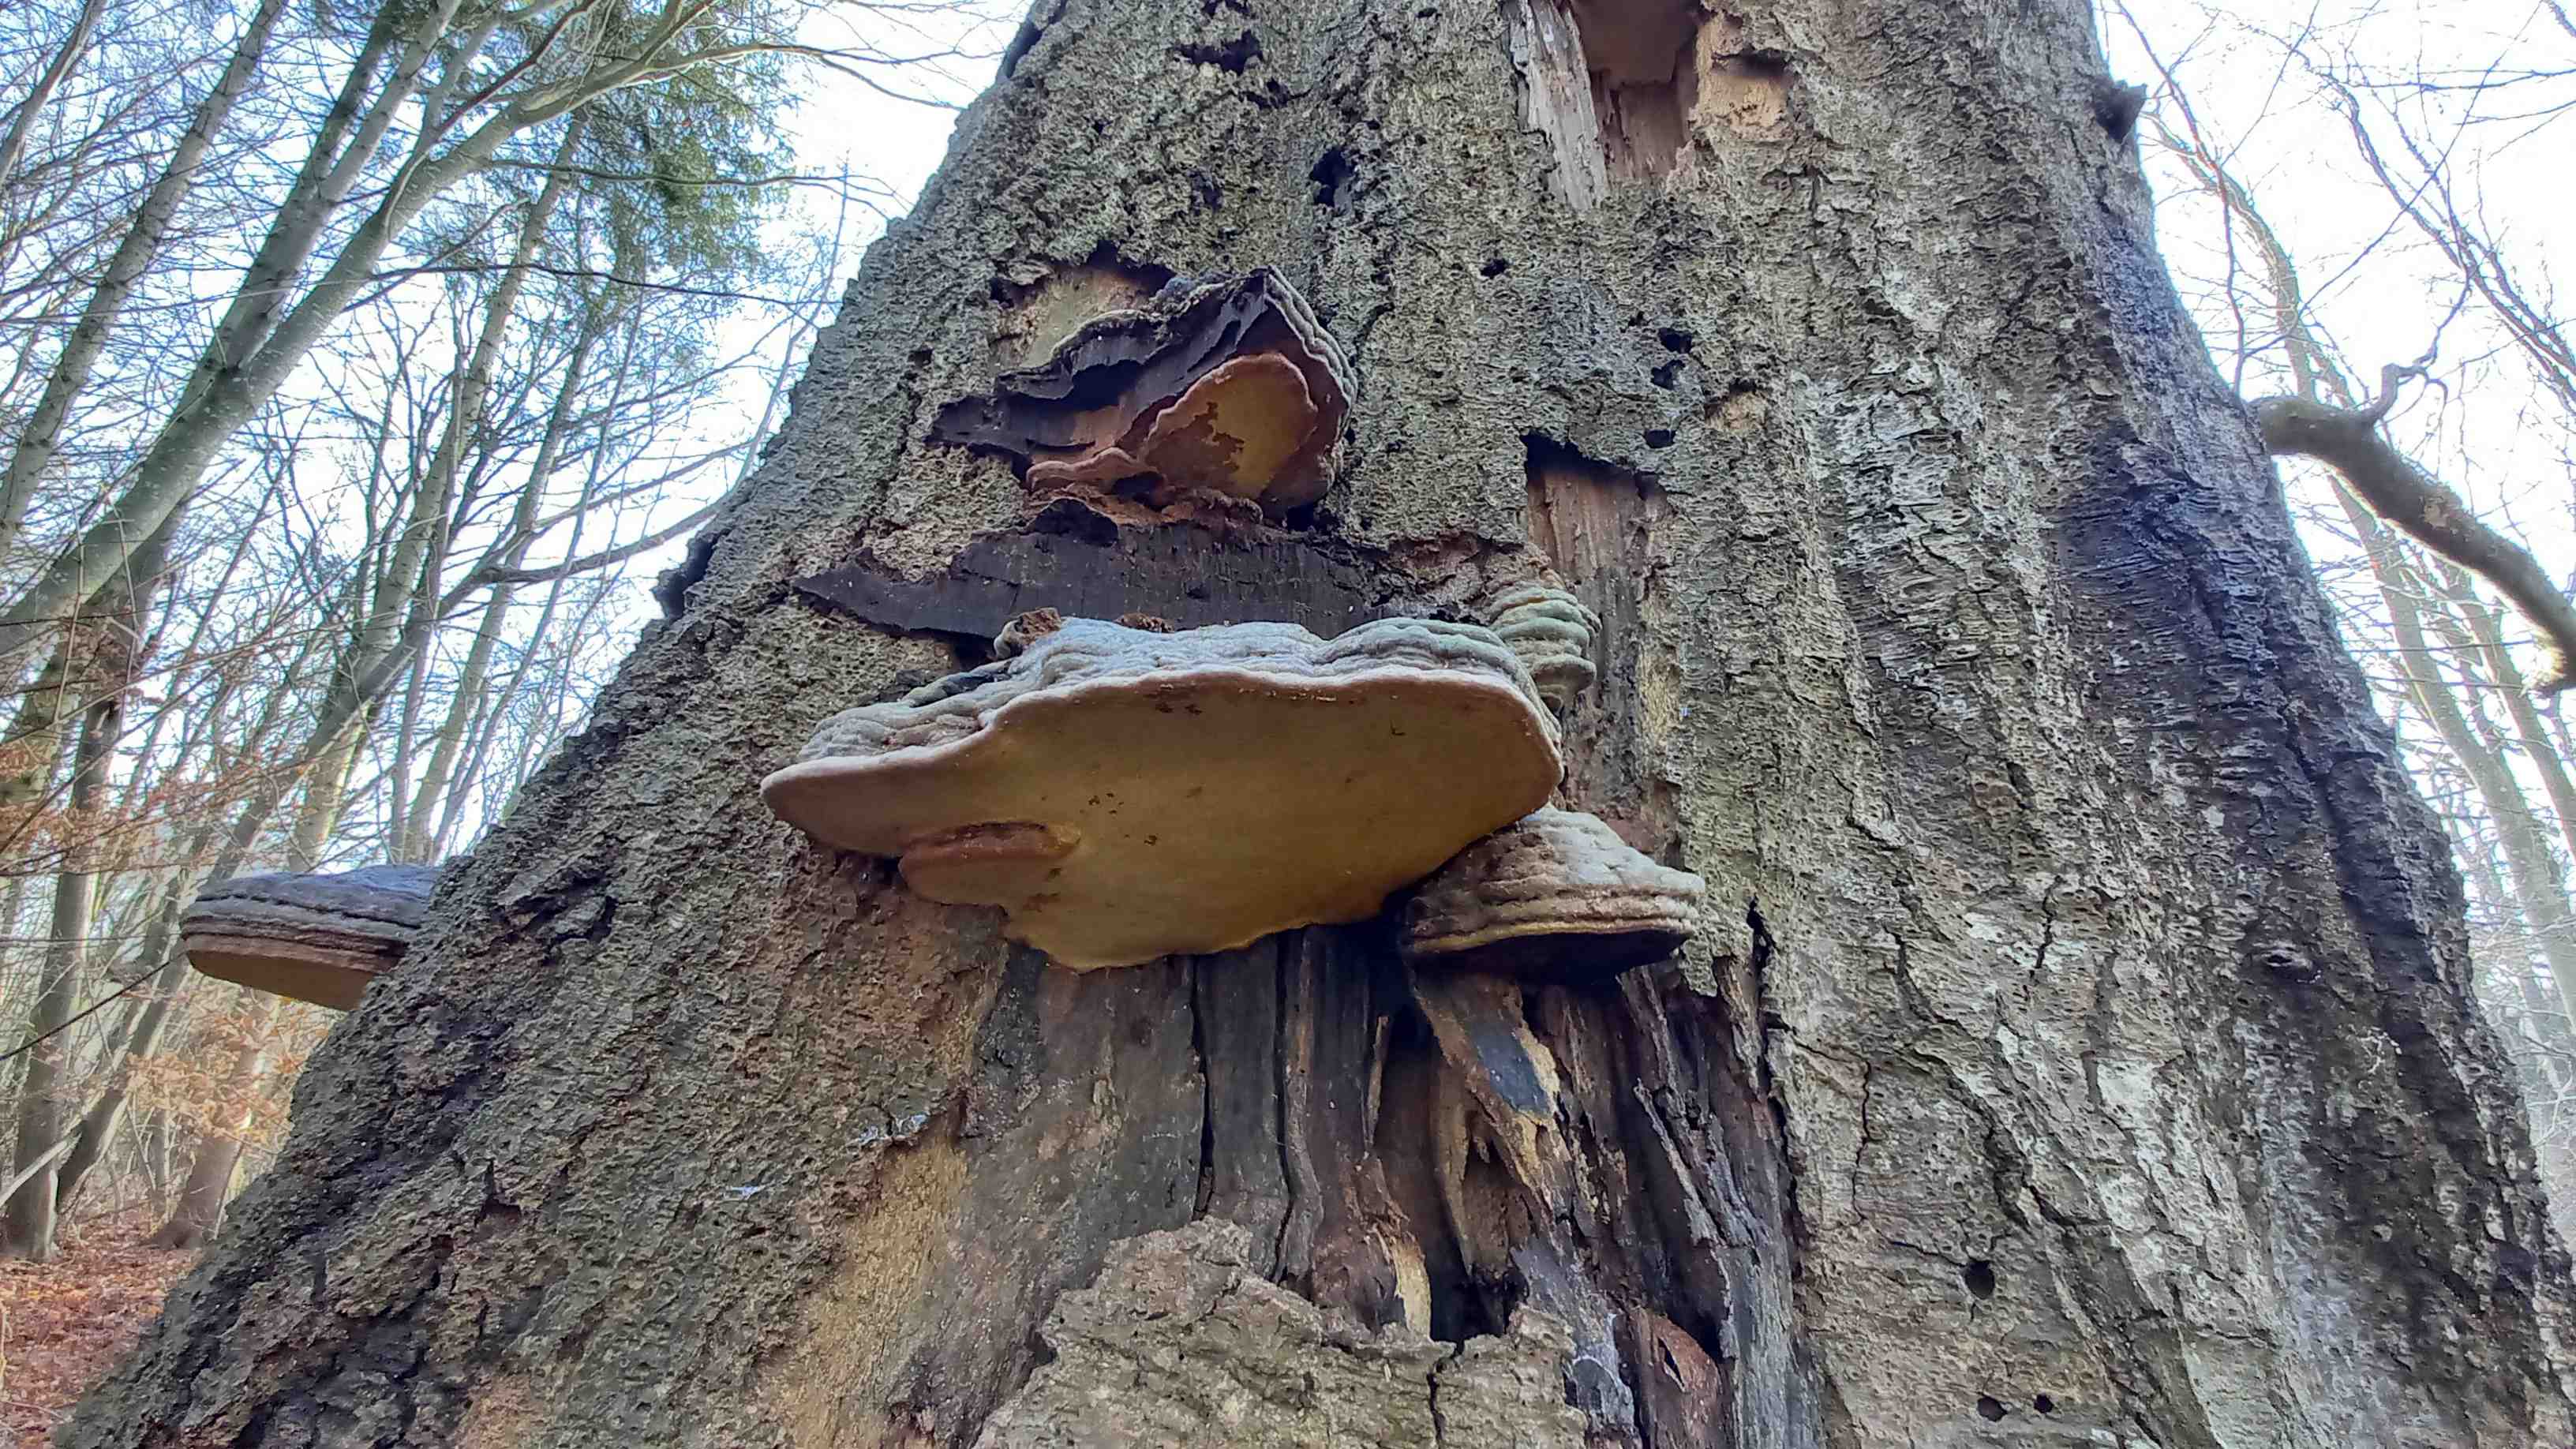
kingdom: Fungi
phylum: Basidiomycota
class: Agaricomycetes
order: Polyporales
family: Polyporaceae
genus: Ganoderma
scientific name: Ganoderma pfeifferi
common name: kobberrød lakporesvamp
